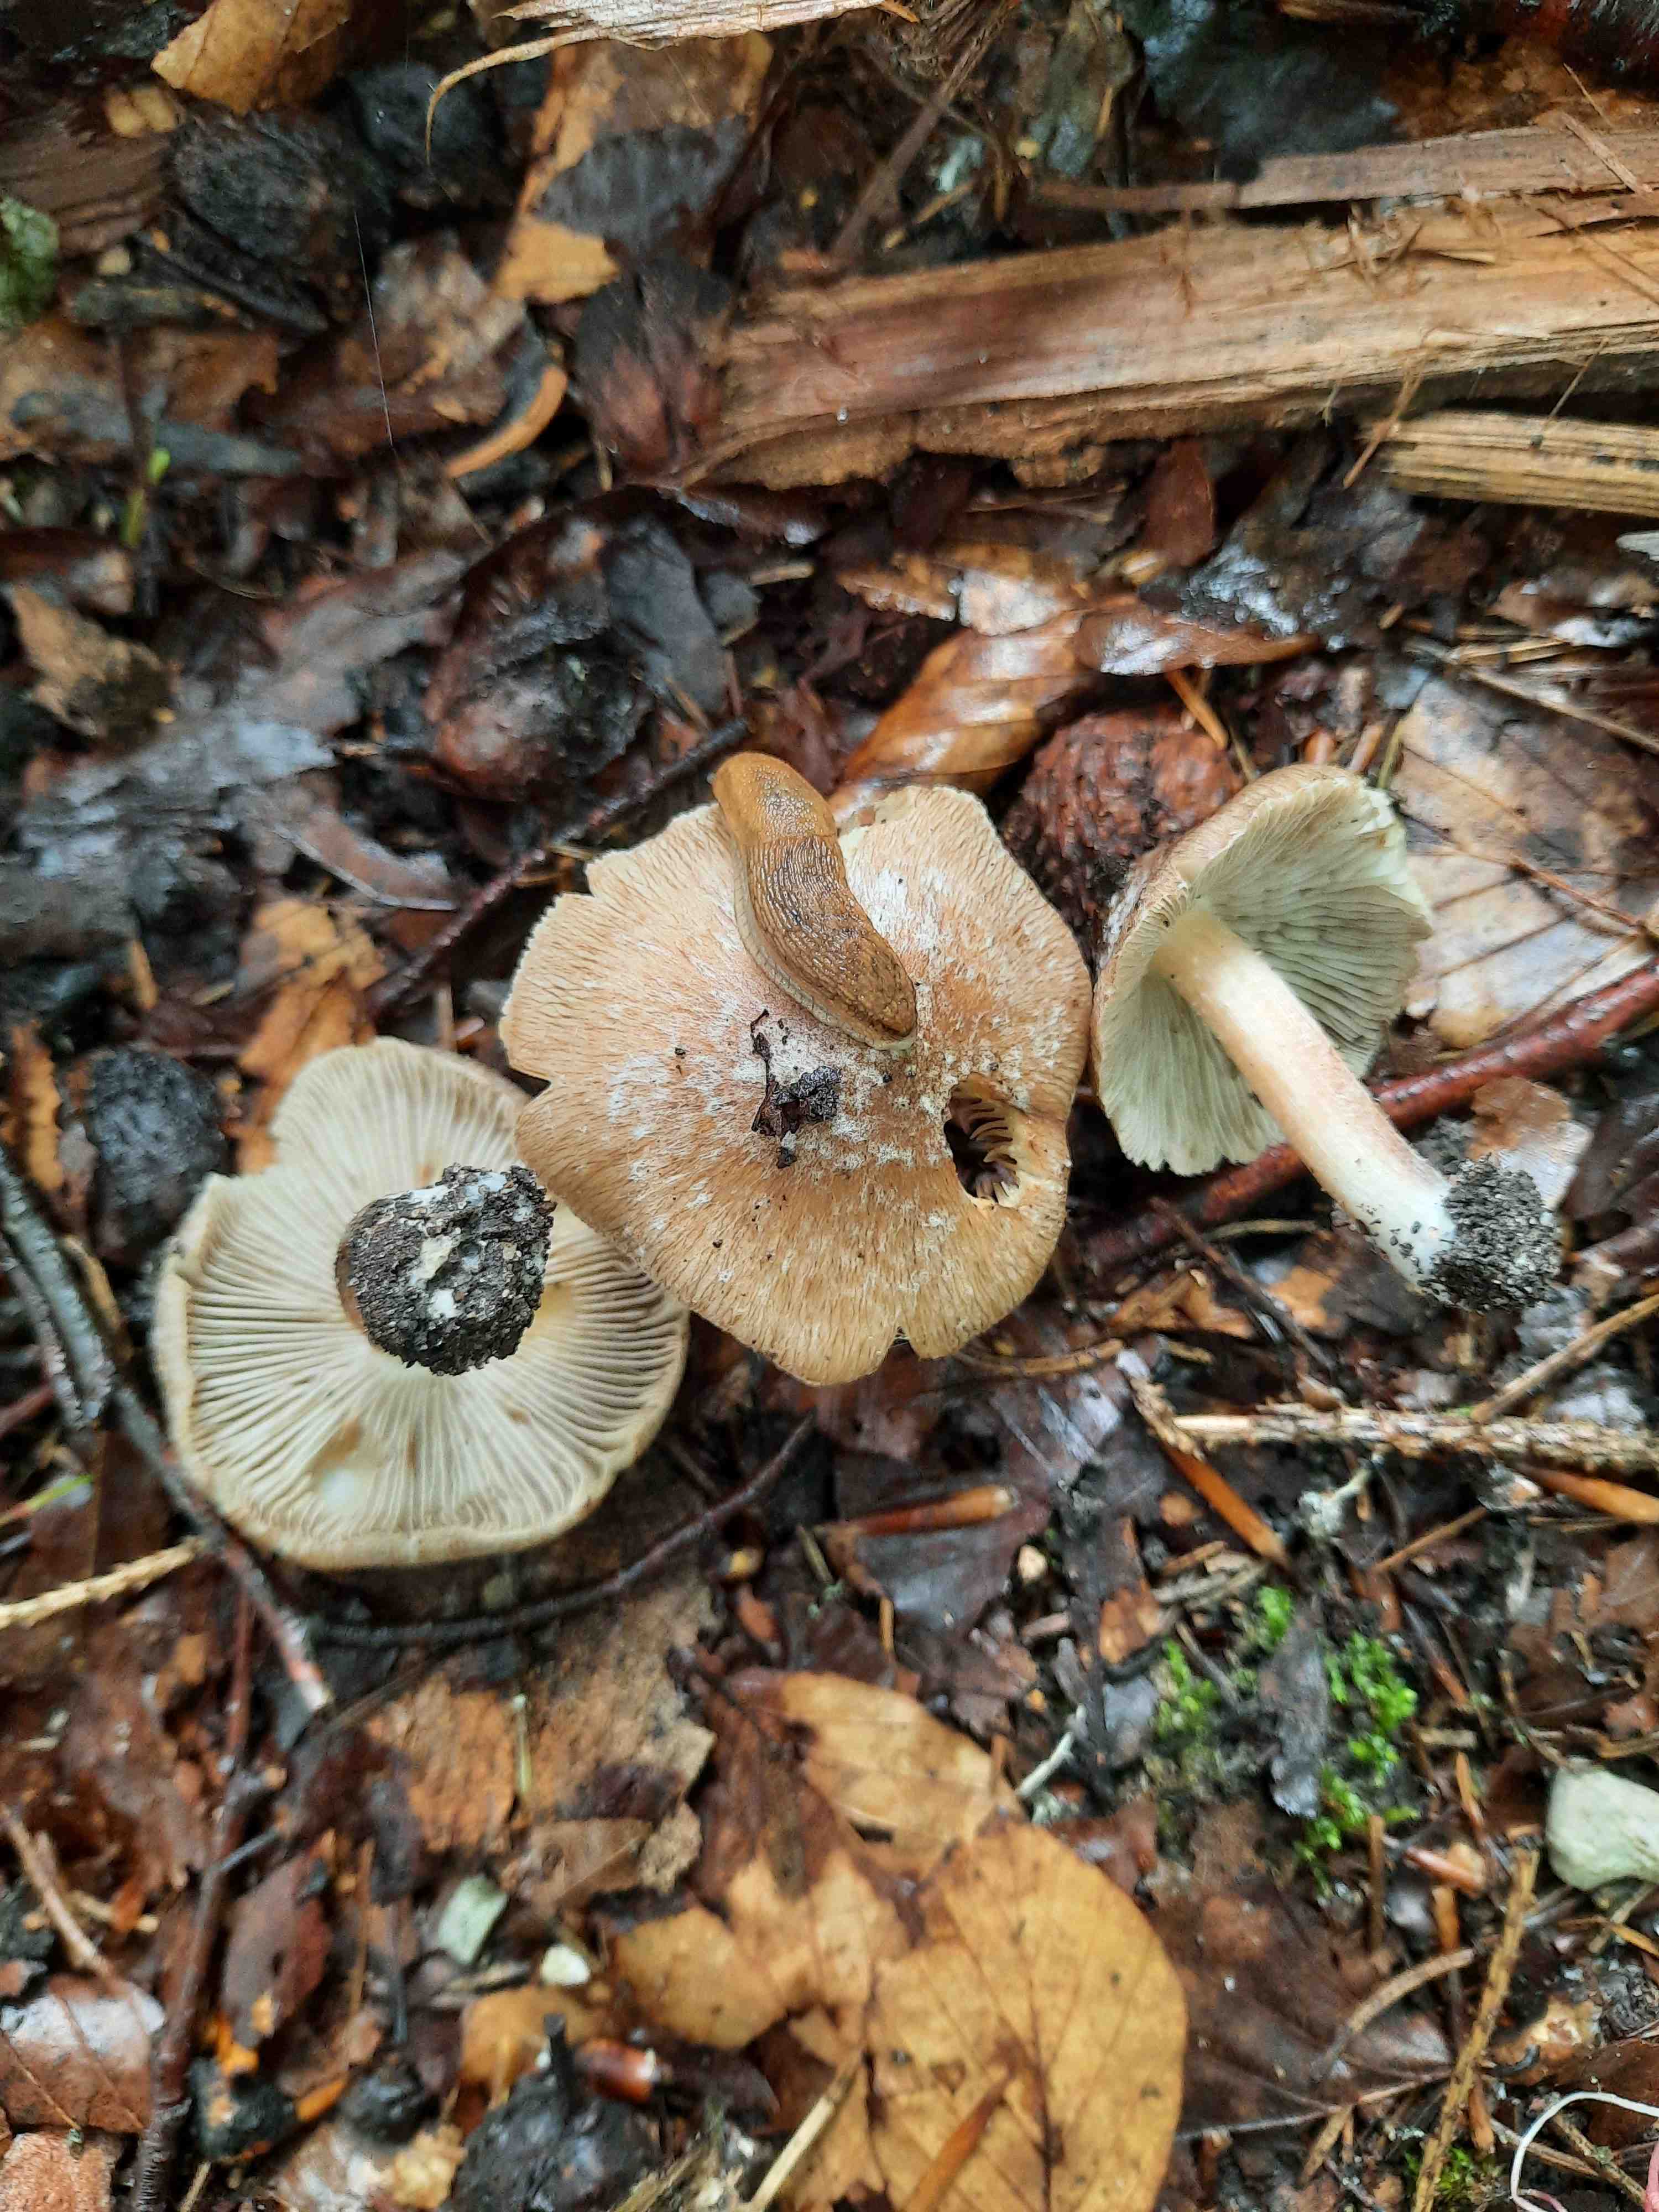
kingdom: Fungi
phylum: Basidiomycota
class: Agaricomycetes
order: Agaricales
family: Inocybaceae
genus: Pseudosperma
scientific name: Pseudosperma
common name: trævlhat
